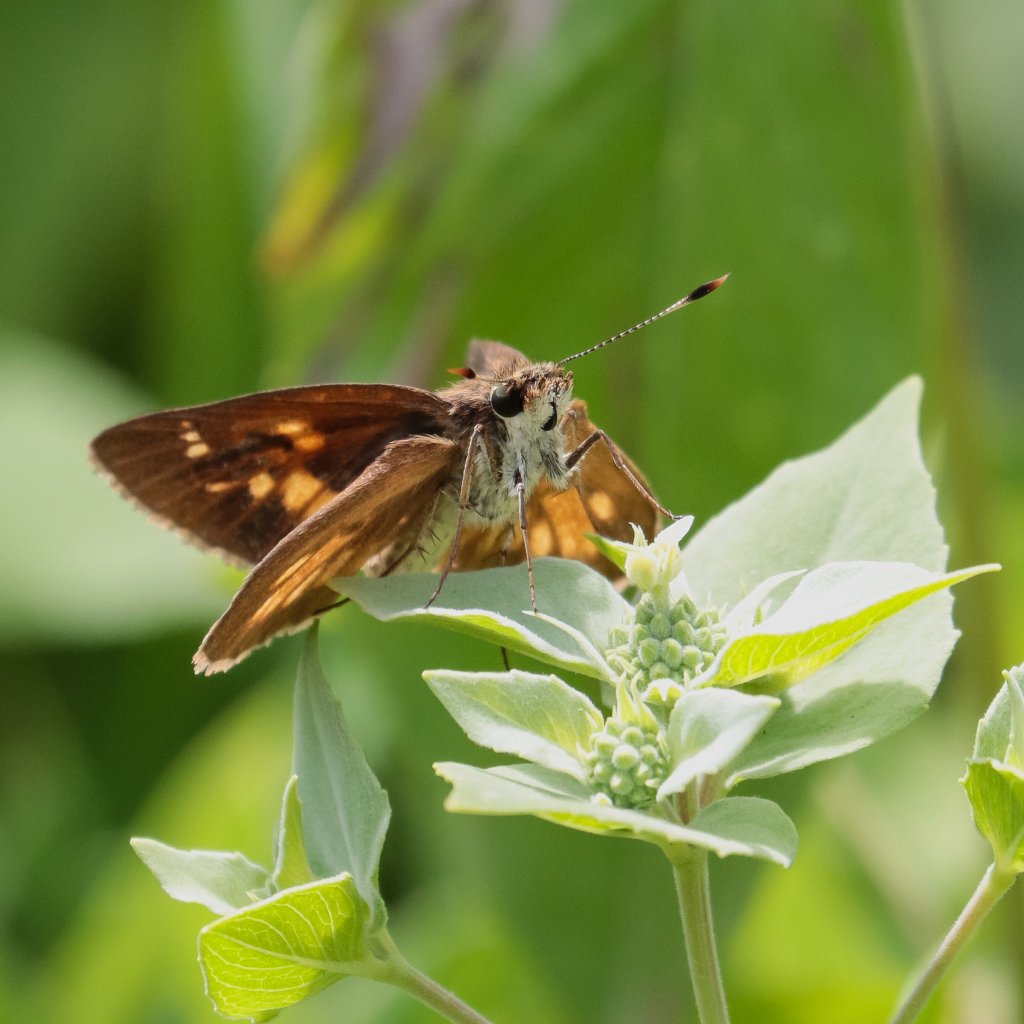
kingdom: Animalia
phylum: Arthropoda
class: Insecta
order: Lepidoptera
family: Hesperiidae
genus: Poanes
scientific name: Poanes viator
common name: Broad-winged Skipper
